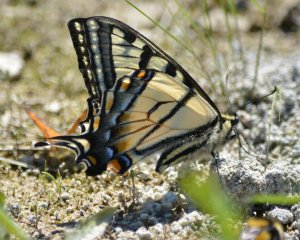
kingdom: Animalia
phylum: Arthropoda
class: Insecta
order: Lepidoptera
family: Papilionidae
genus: Pterourus
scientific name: Pterourus canadensis
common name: Canadian Tiger Swallowtail
